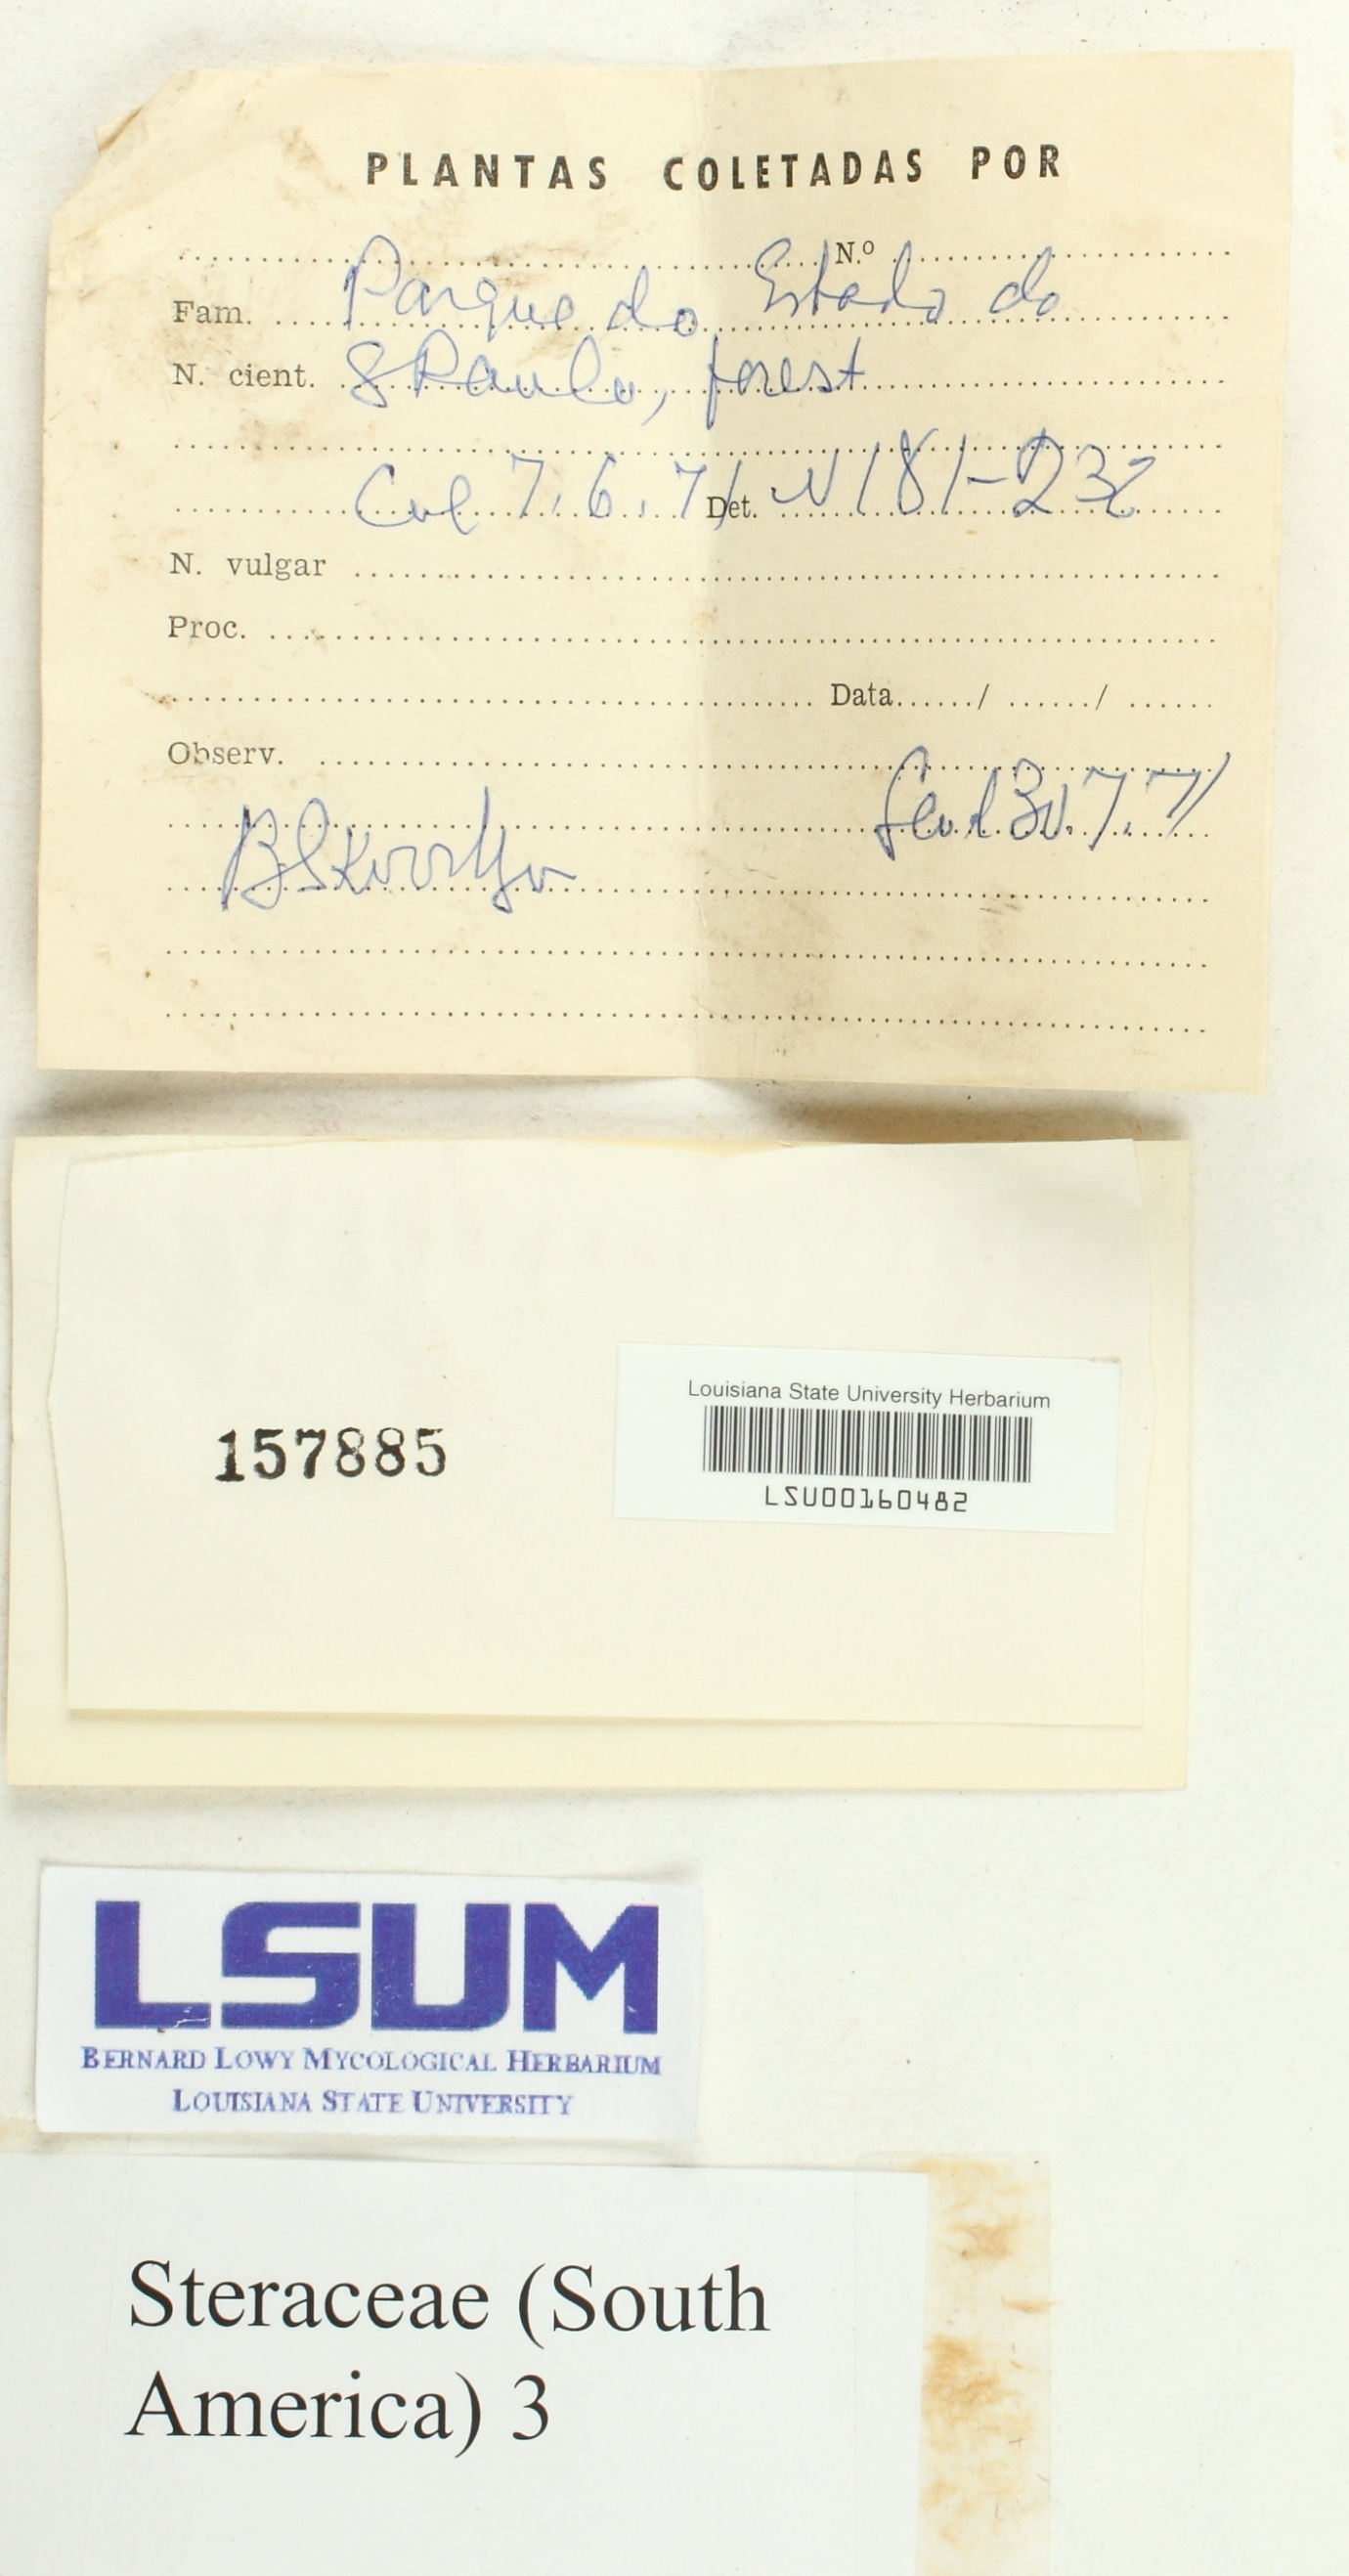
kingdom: Fungi
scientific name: Fungi
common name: Fungi
